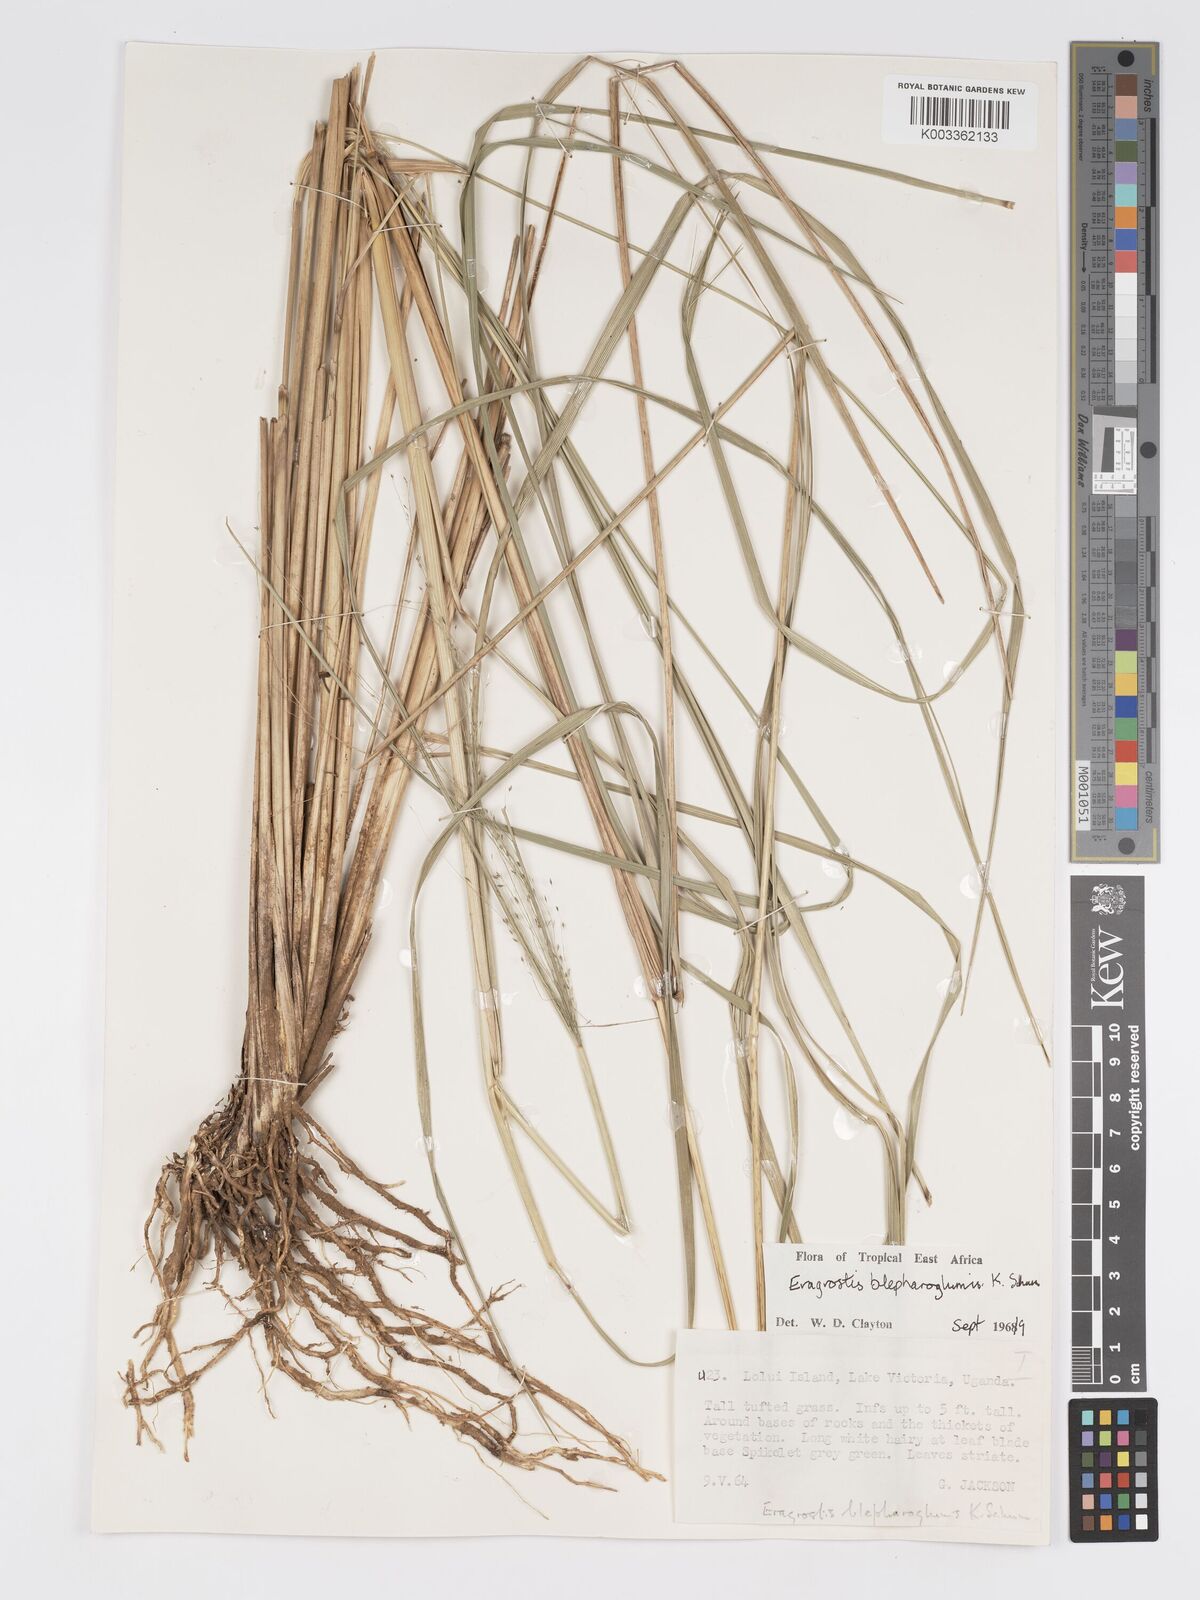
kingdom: Plantae
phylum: Tracheophyta
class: Liliopsida
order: Poales
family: Poaceae
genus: Eragrostis
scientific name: Eragrostis olivacea
